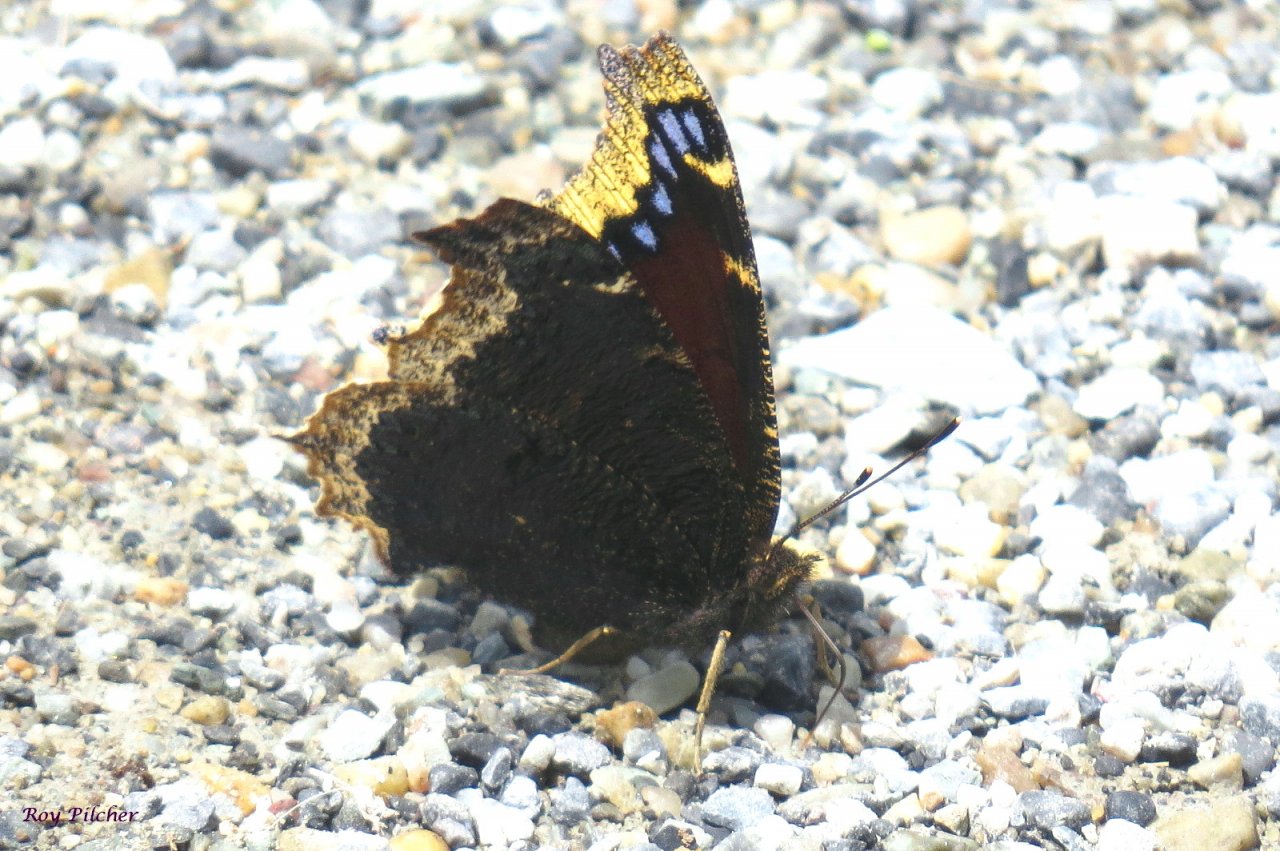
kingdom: Animalia
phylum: Arthropoda
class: Insecta
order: Lepidoptera
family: Nymphalidae
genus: Nymphalis
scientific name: Nymphalis antiopa
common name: Mourning Cloak
